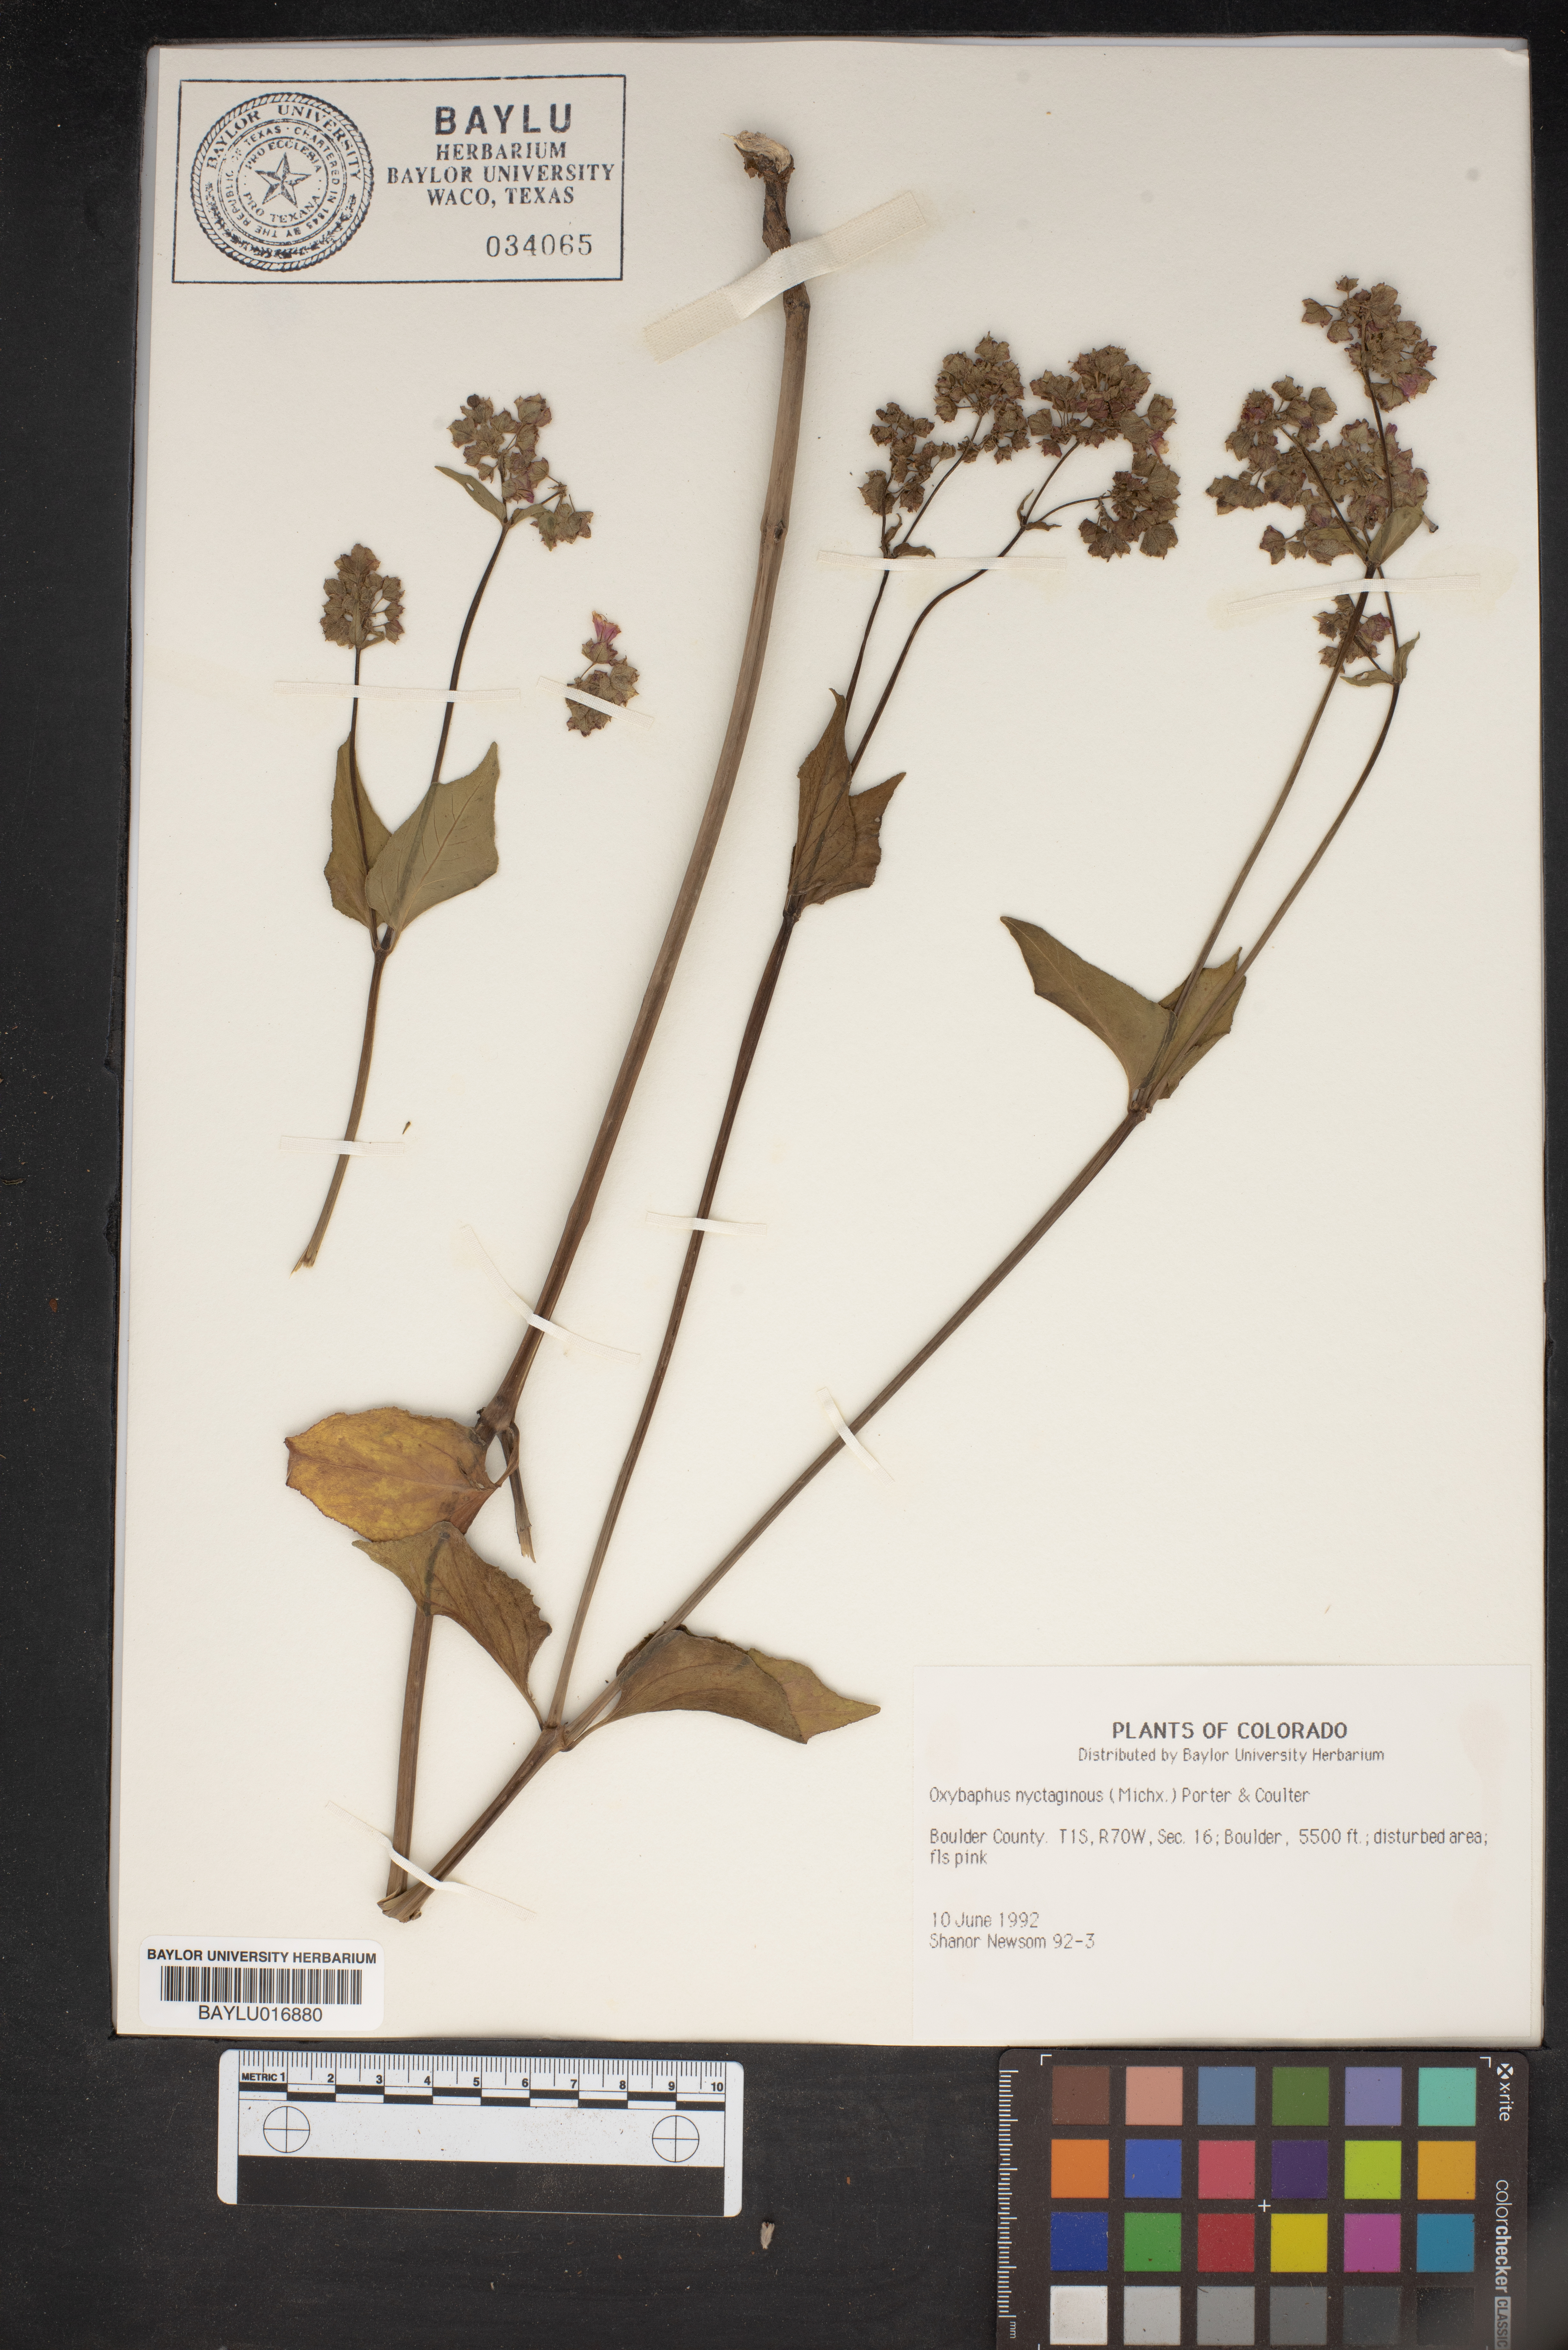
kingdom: Plantae
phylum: Tracheophyta
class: Magnoliopsida
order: Caryophyllales
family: Nyctaginaceae
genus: Mirabilis
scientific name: Mirabilis nyctaginea
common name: Umbrella wort
